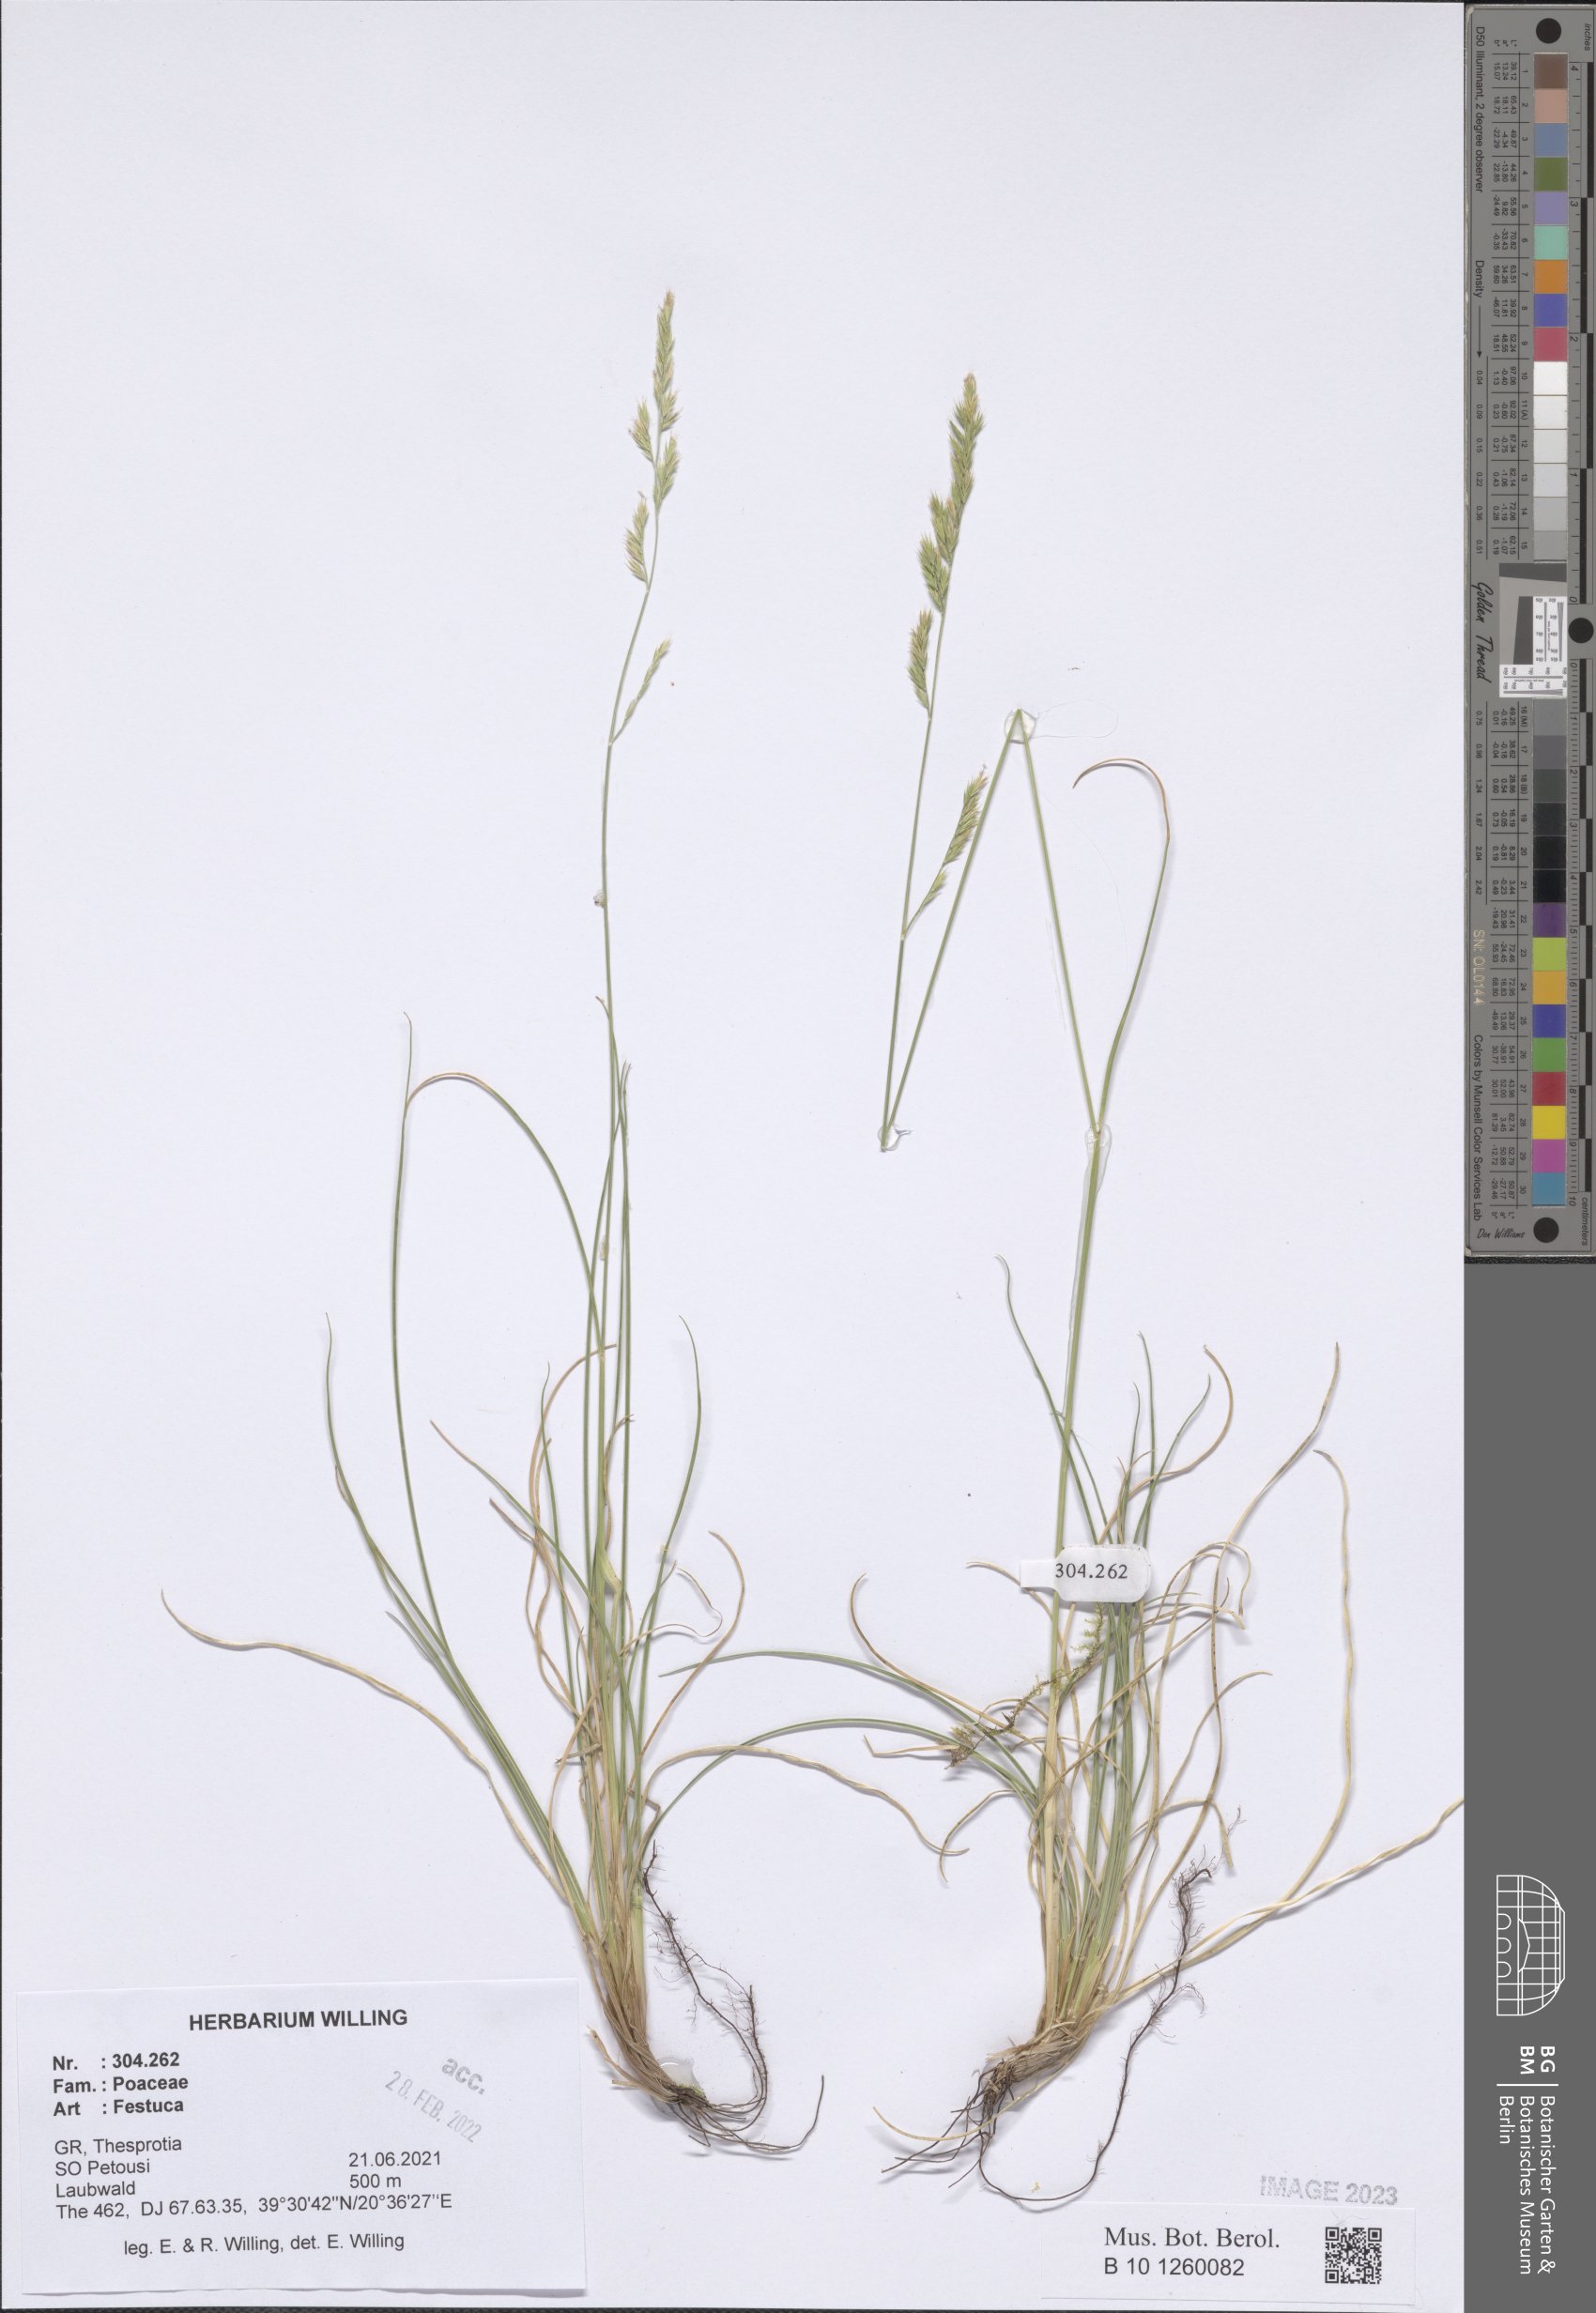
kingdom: Plantae
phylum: Tracheophyta
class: Liliopsida
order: Poales
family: Poaceae
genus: Festuca
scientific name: Festuca
